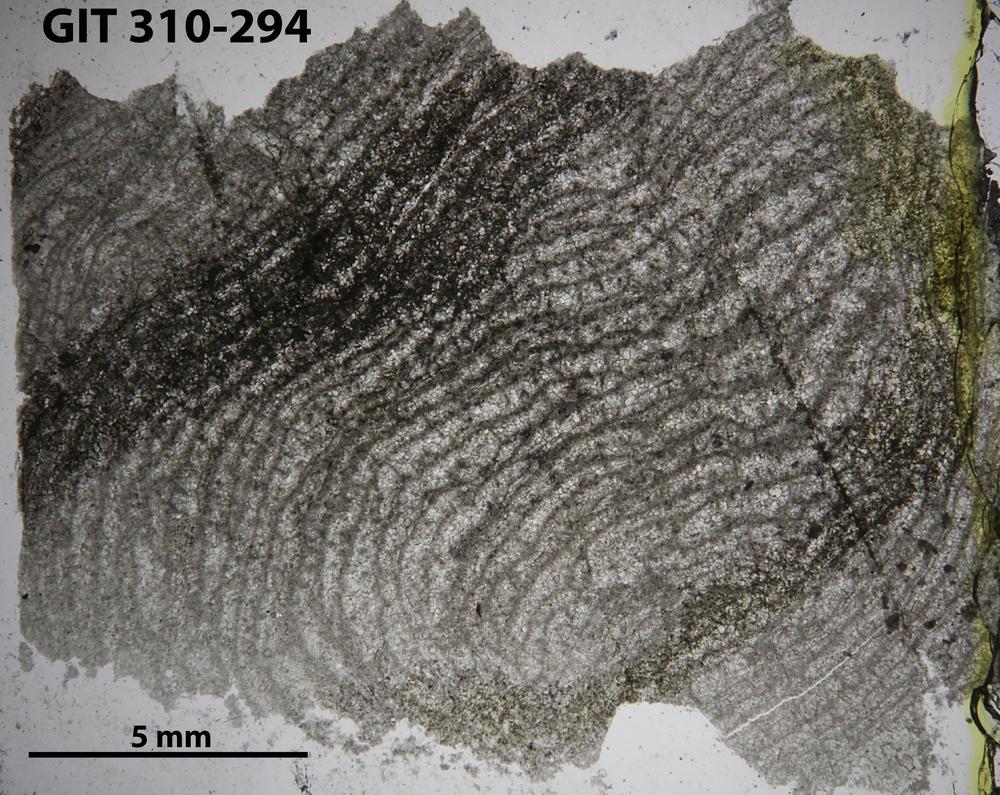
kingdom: Animalia
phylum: Porifera
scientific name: Porifera
